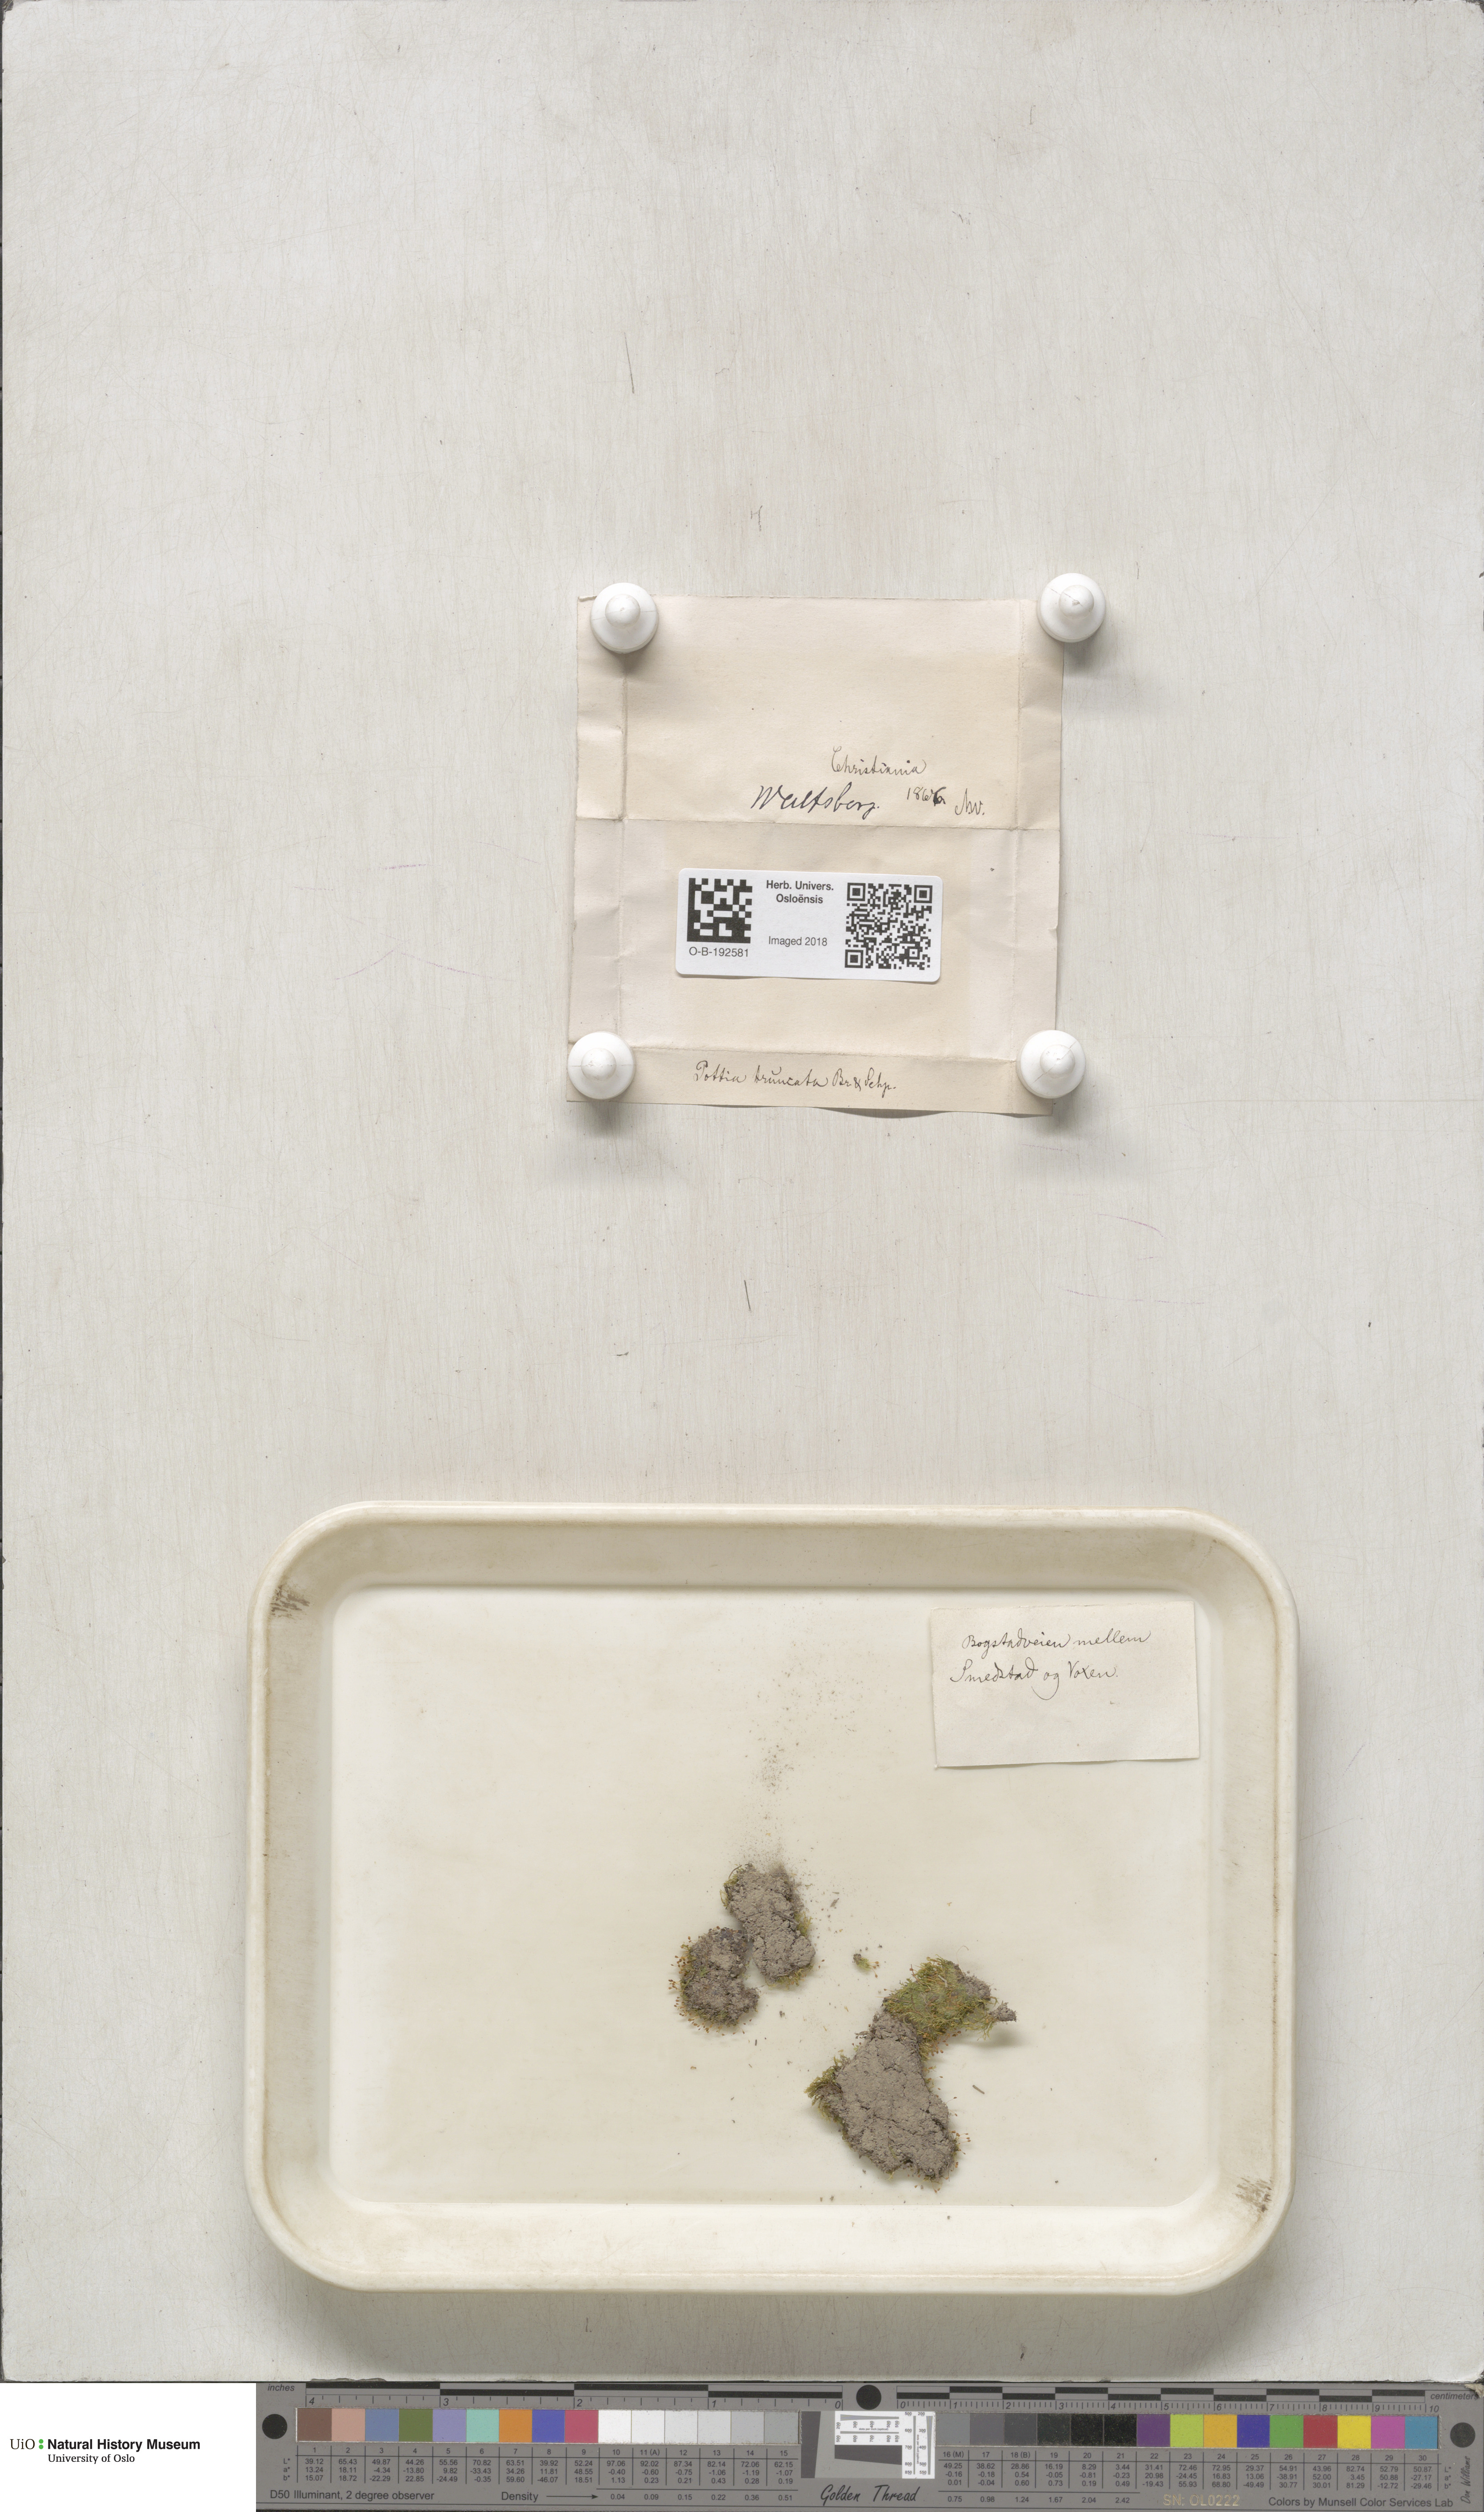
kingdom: Plantae
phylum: Bryophyta
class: Bryopsida
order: Pottiales
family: Pottiaceae
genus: Tortula
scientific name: Tortula truncata
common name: Truncated screw moss
